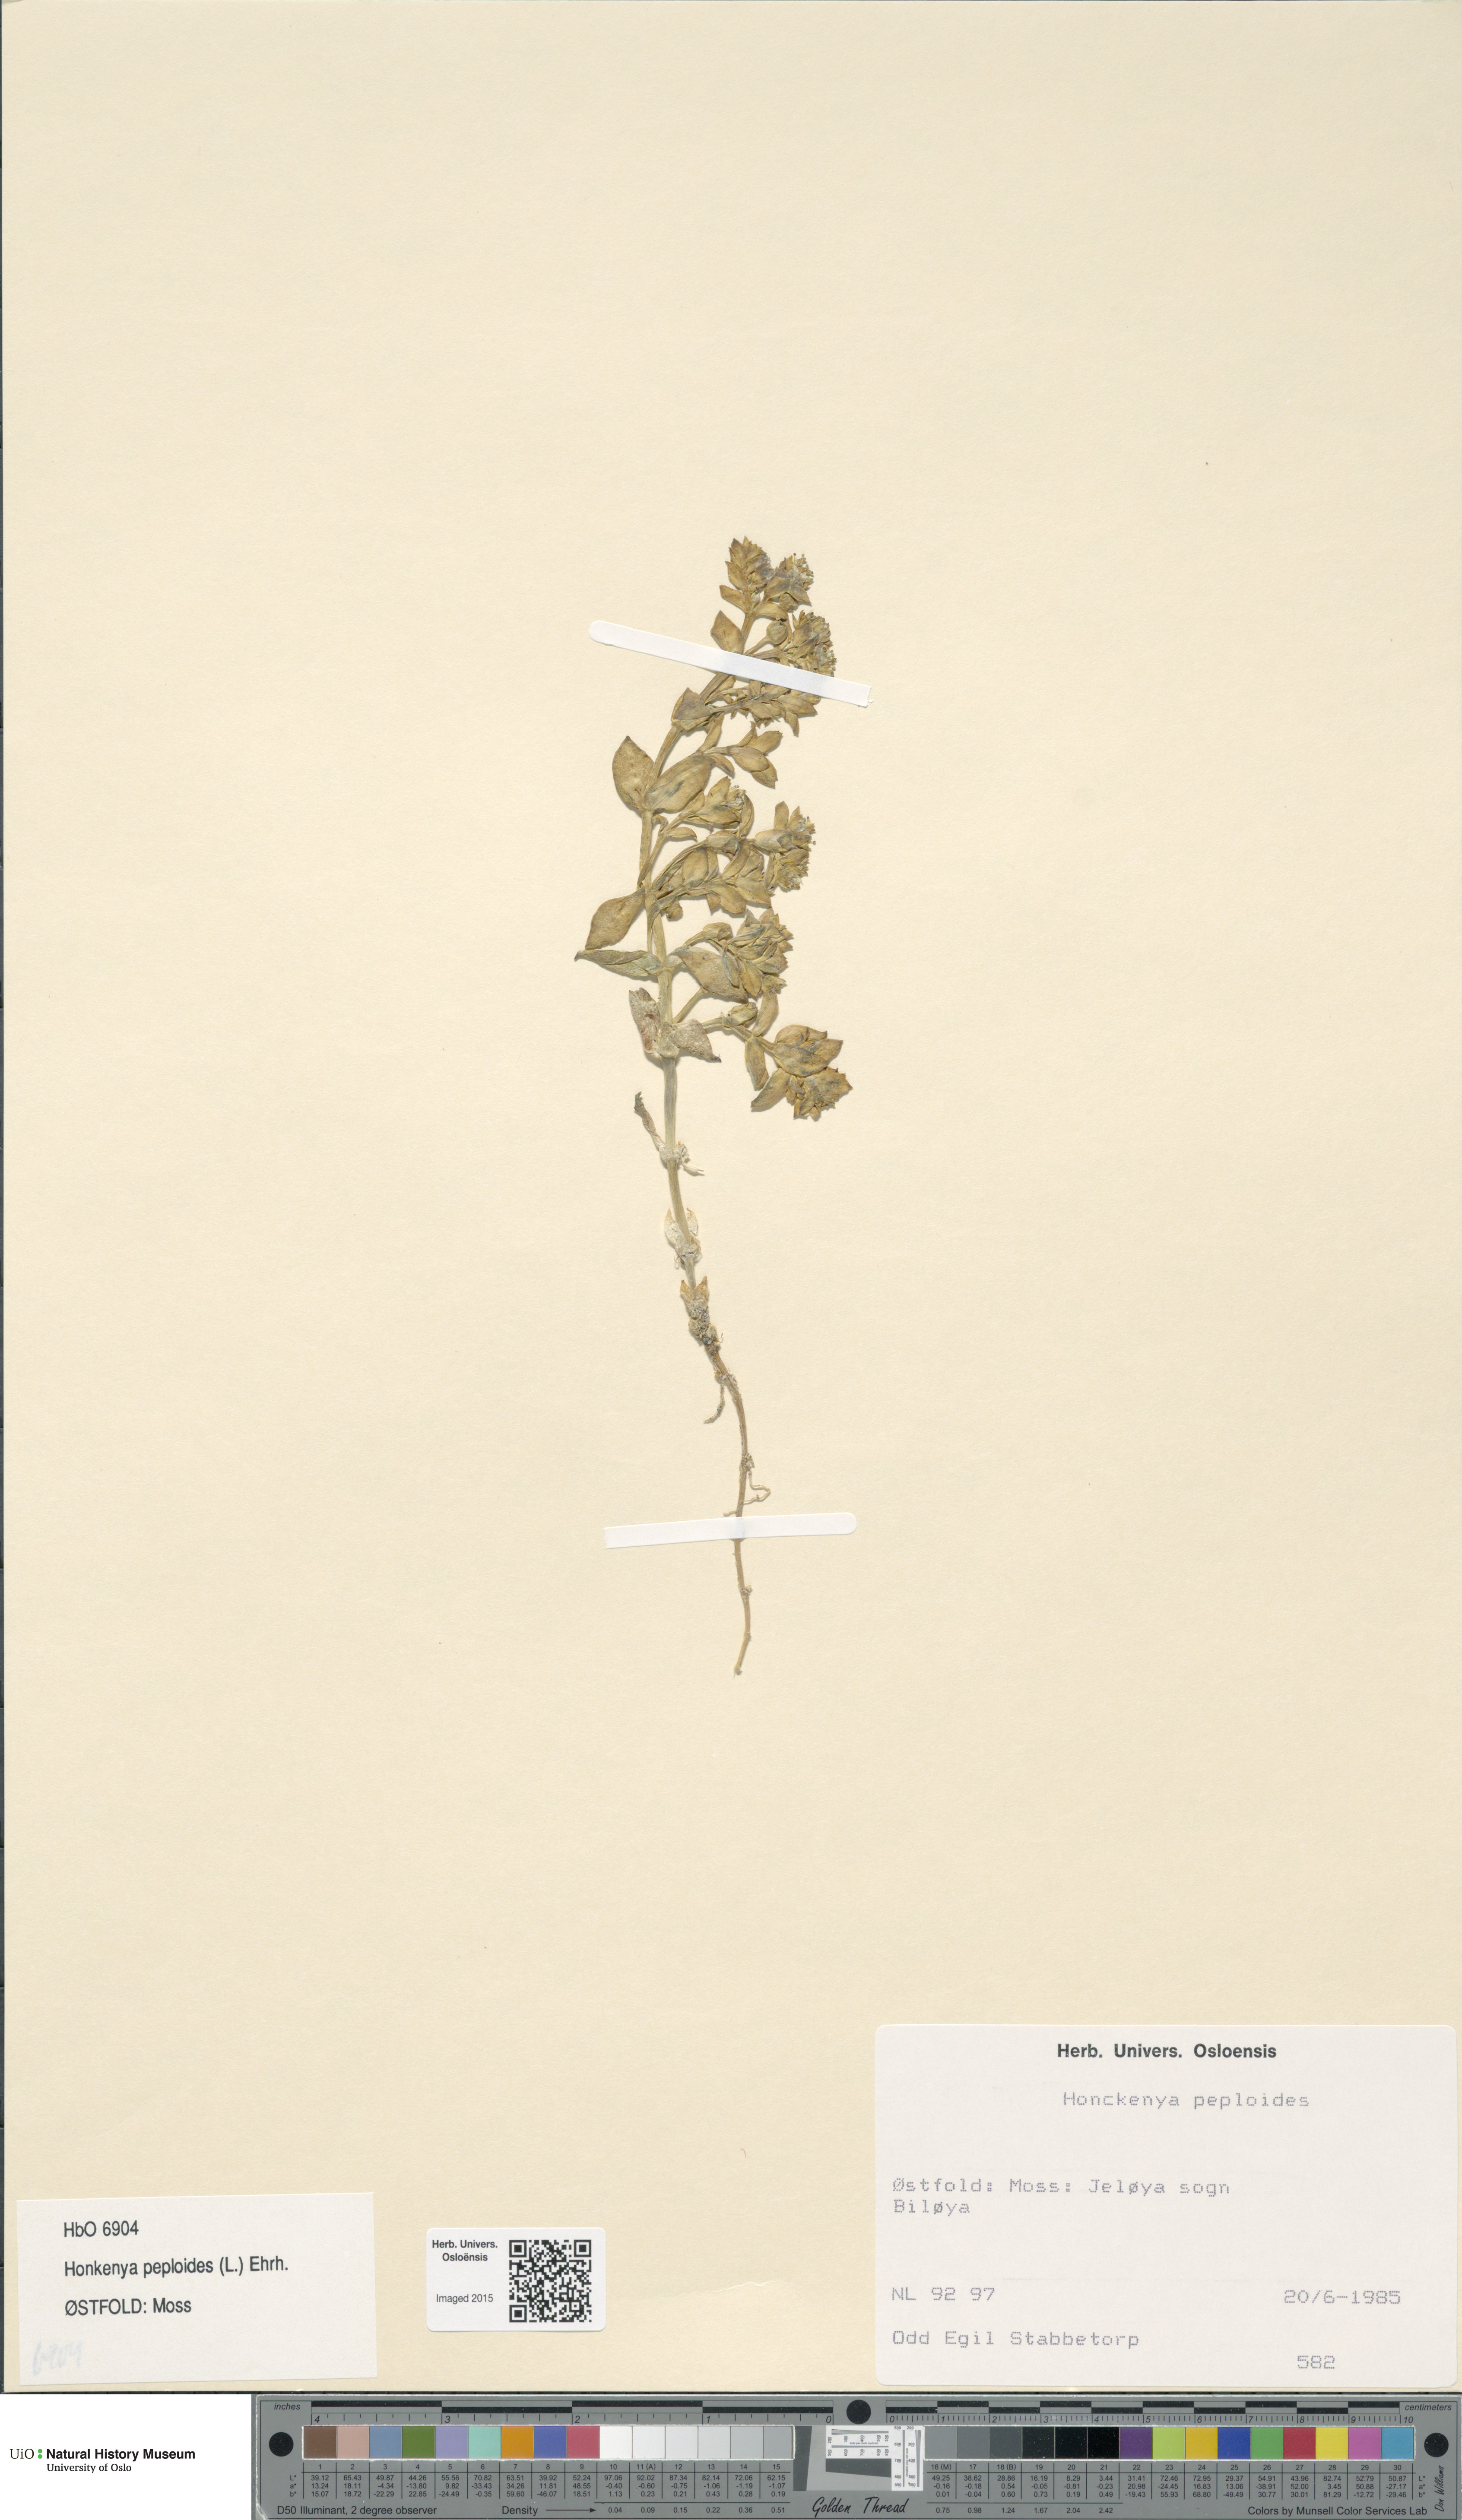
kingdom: Plantae
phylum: Tracheophyta
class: Magnoliopsida
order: Caryophyllales
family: Caryophyllaceae
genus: Honckenya
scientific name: Honckenya peploides
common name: Sea sandwort
